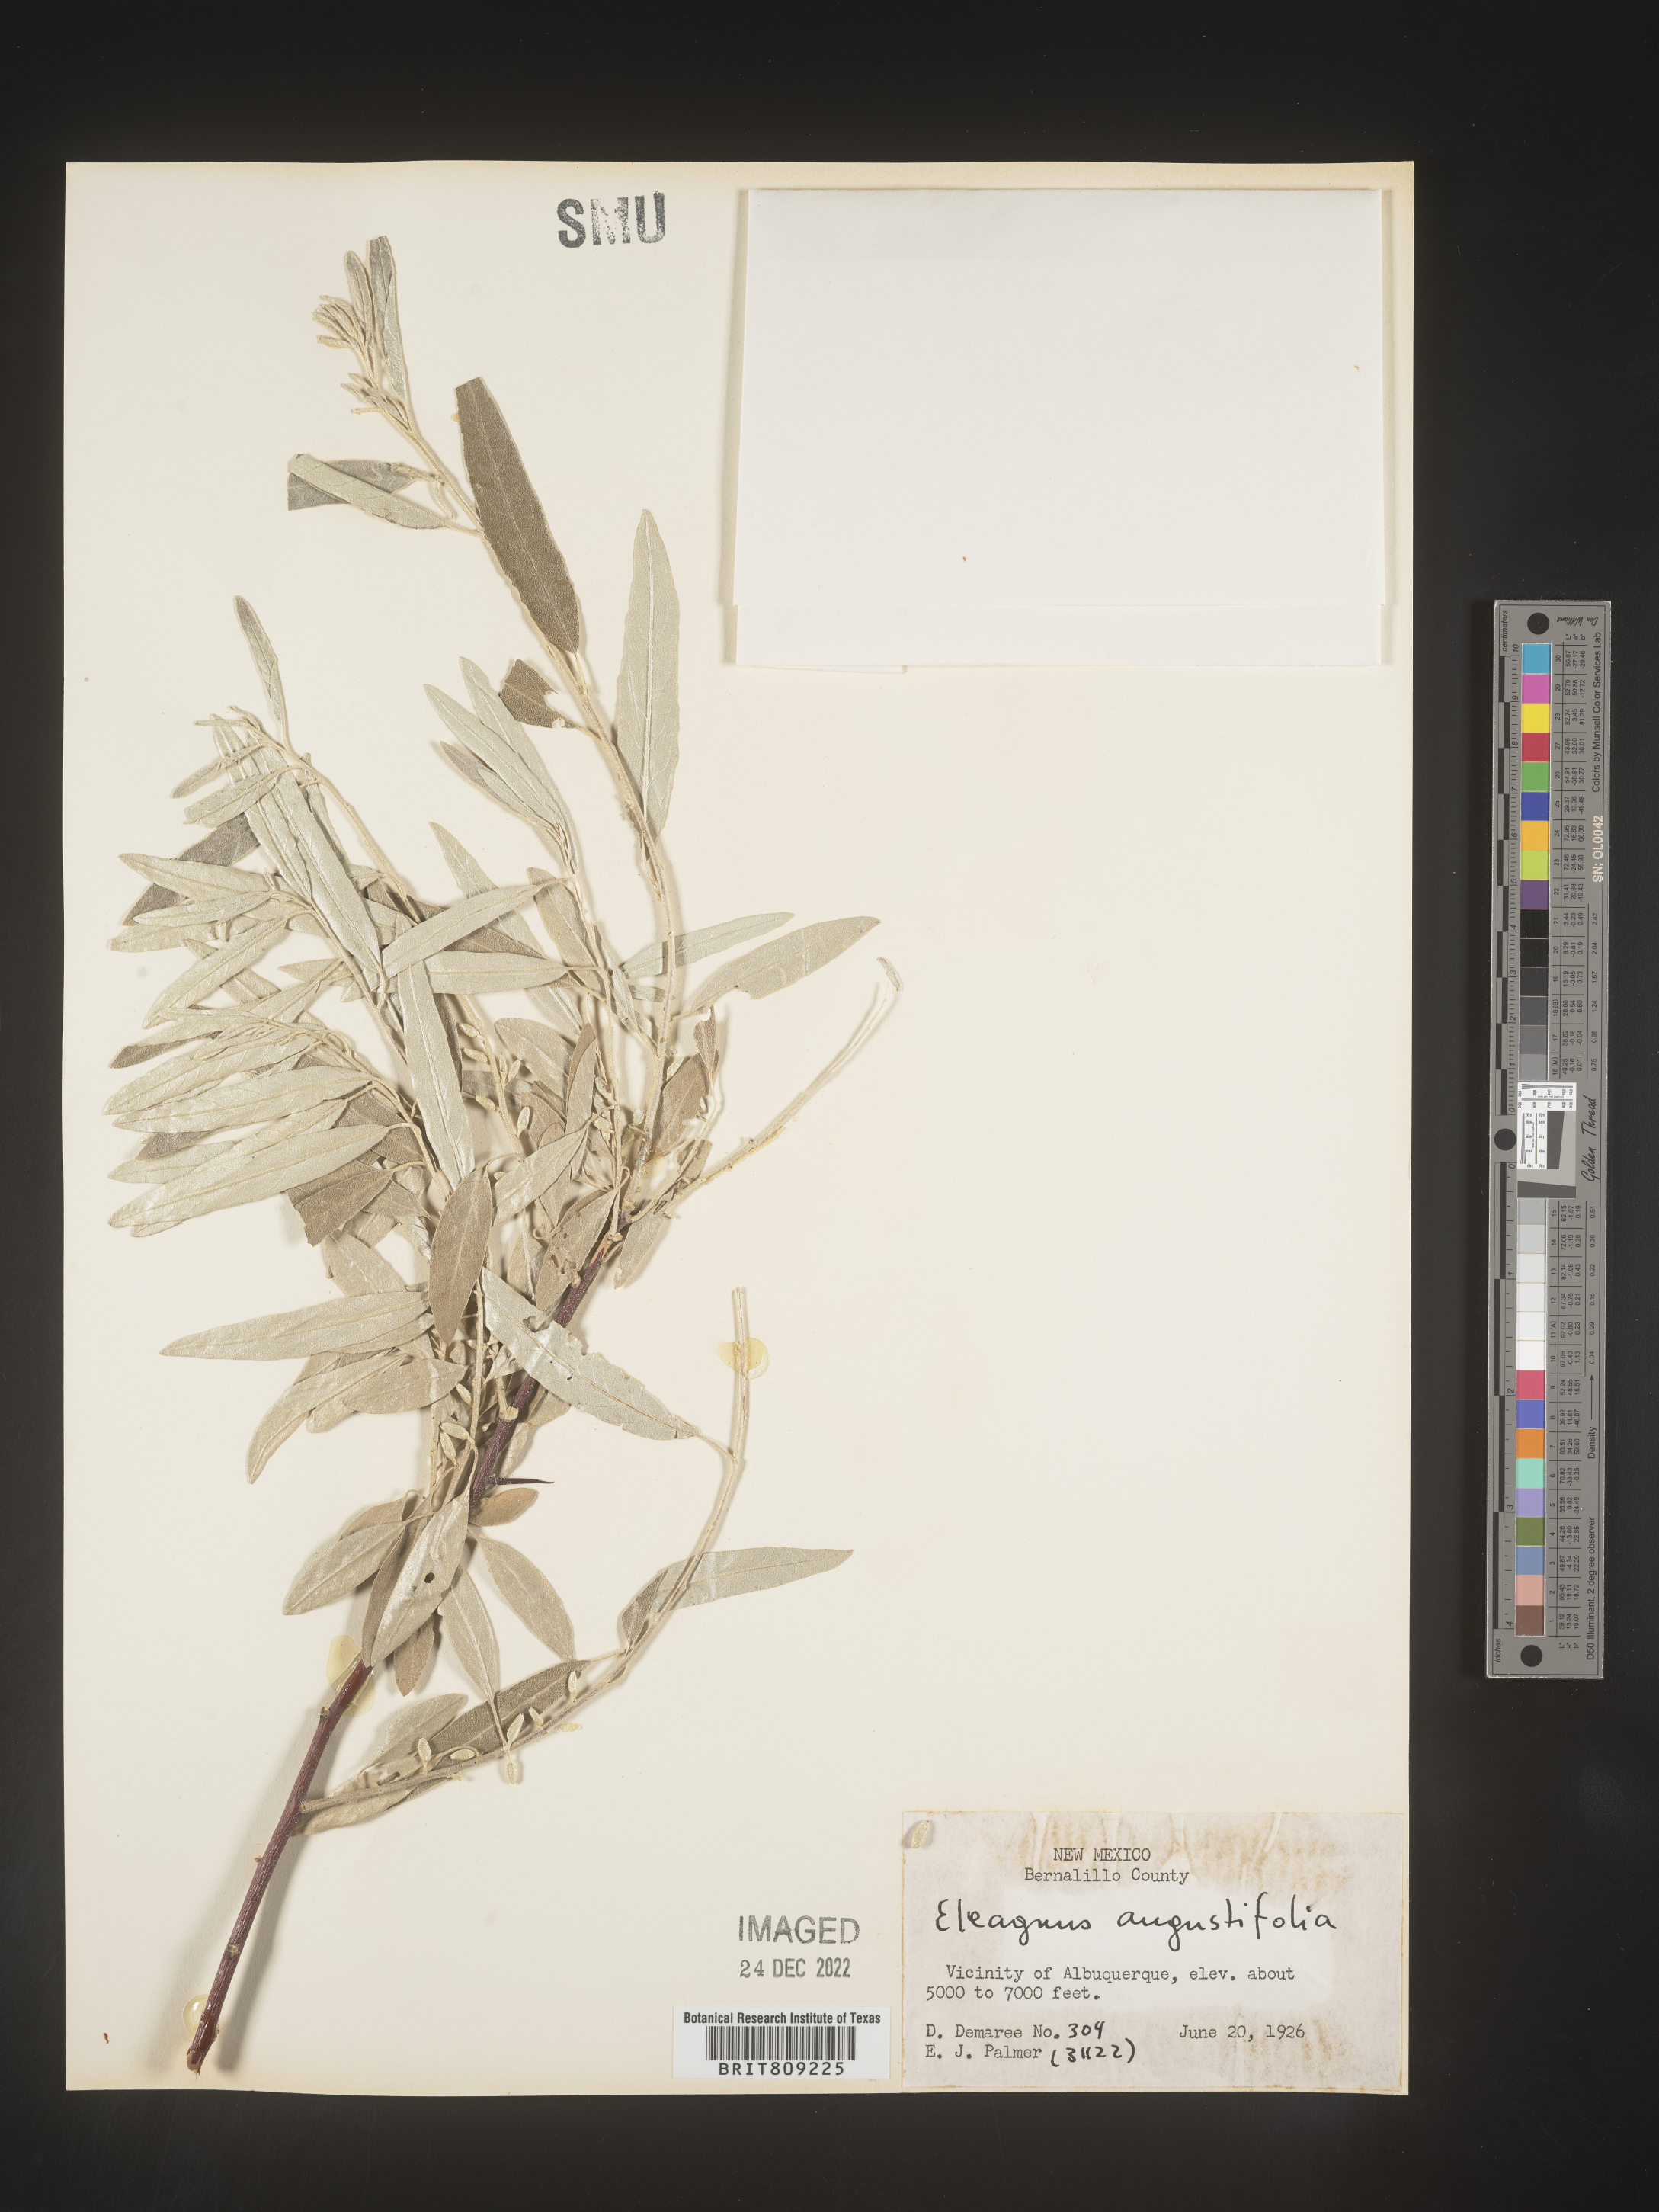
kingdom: Plantae
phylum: Tracheophyta
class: Magnoliopsida
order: Rosales
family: Elaeagnaceae
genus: Elaeagnus
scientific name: Elaeagnus angustifolia
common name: Russian olive
